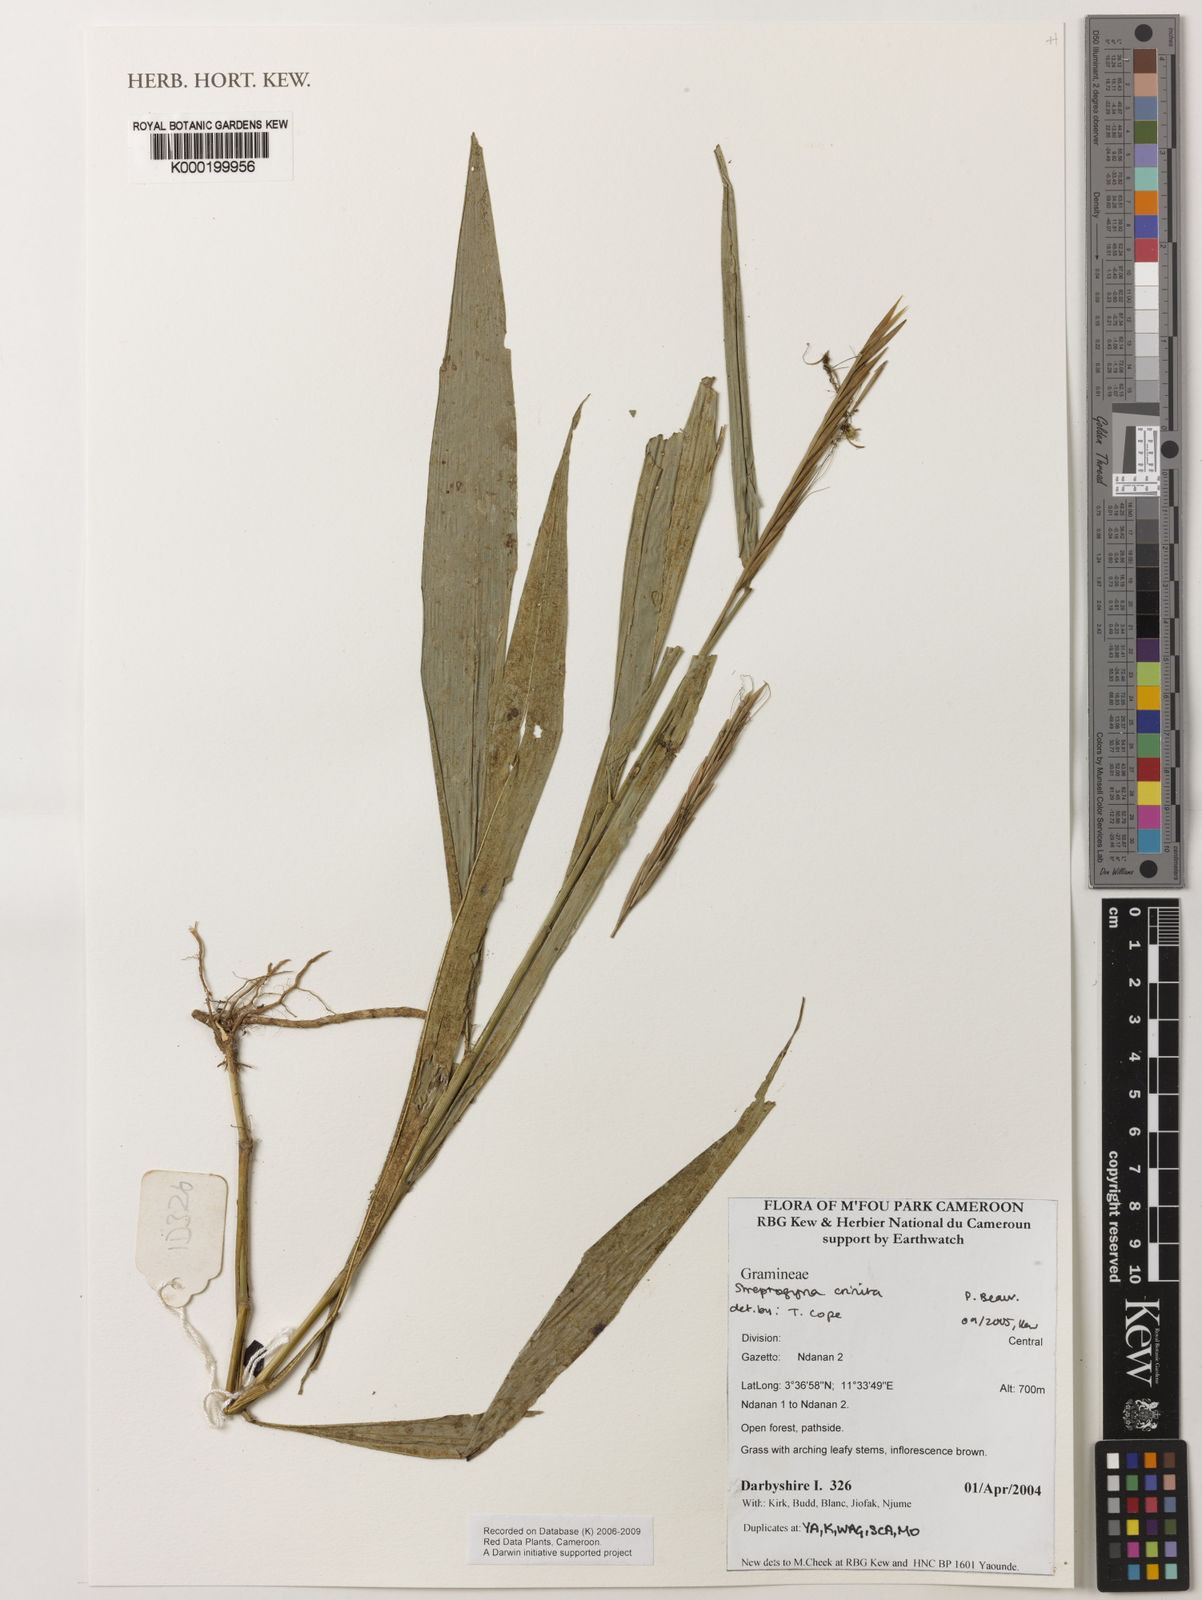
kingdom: Plantae
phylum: Tracheophyta
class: Liliopsida
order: Poales
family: Poaceae
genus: Streptogyna
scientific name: Streptogyna crinita
